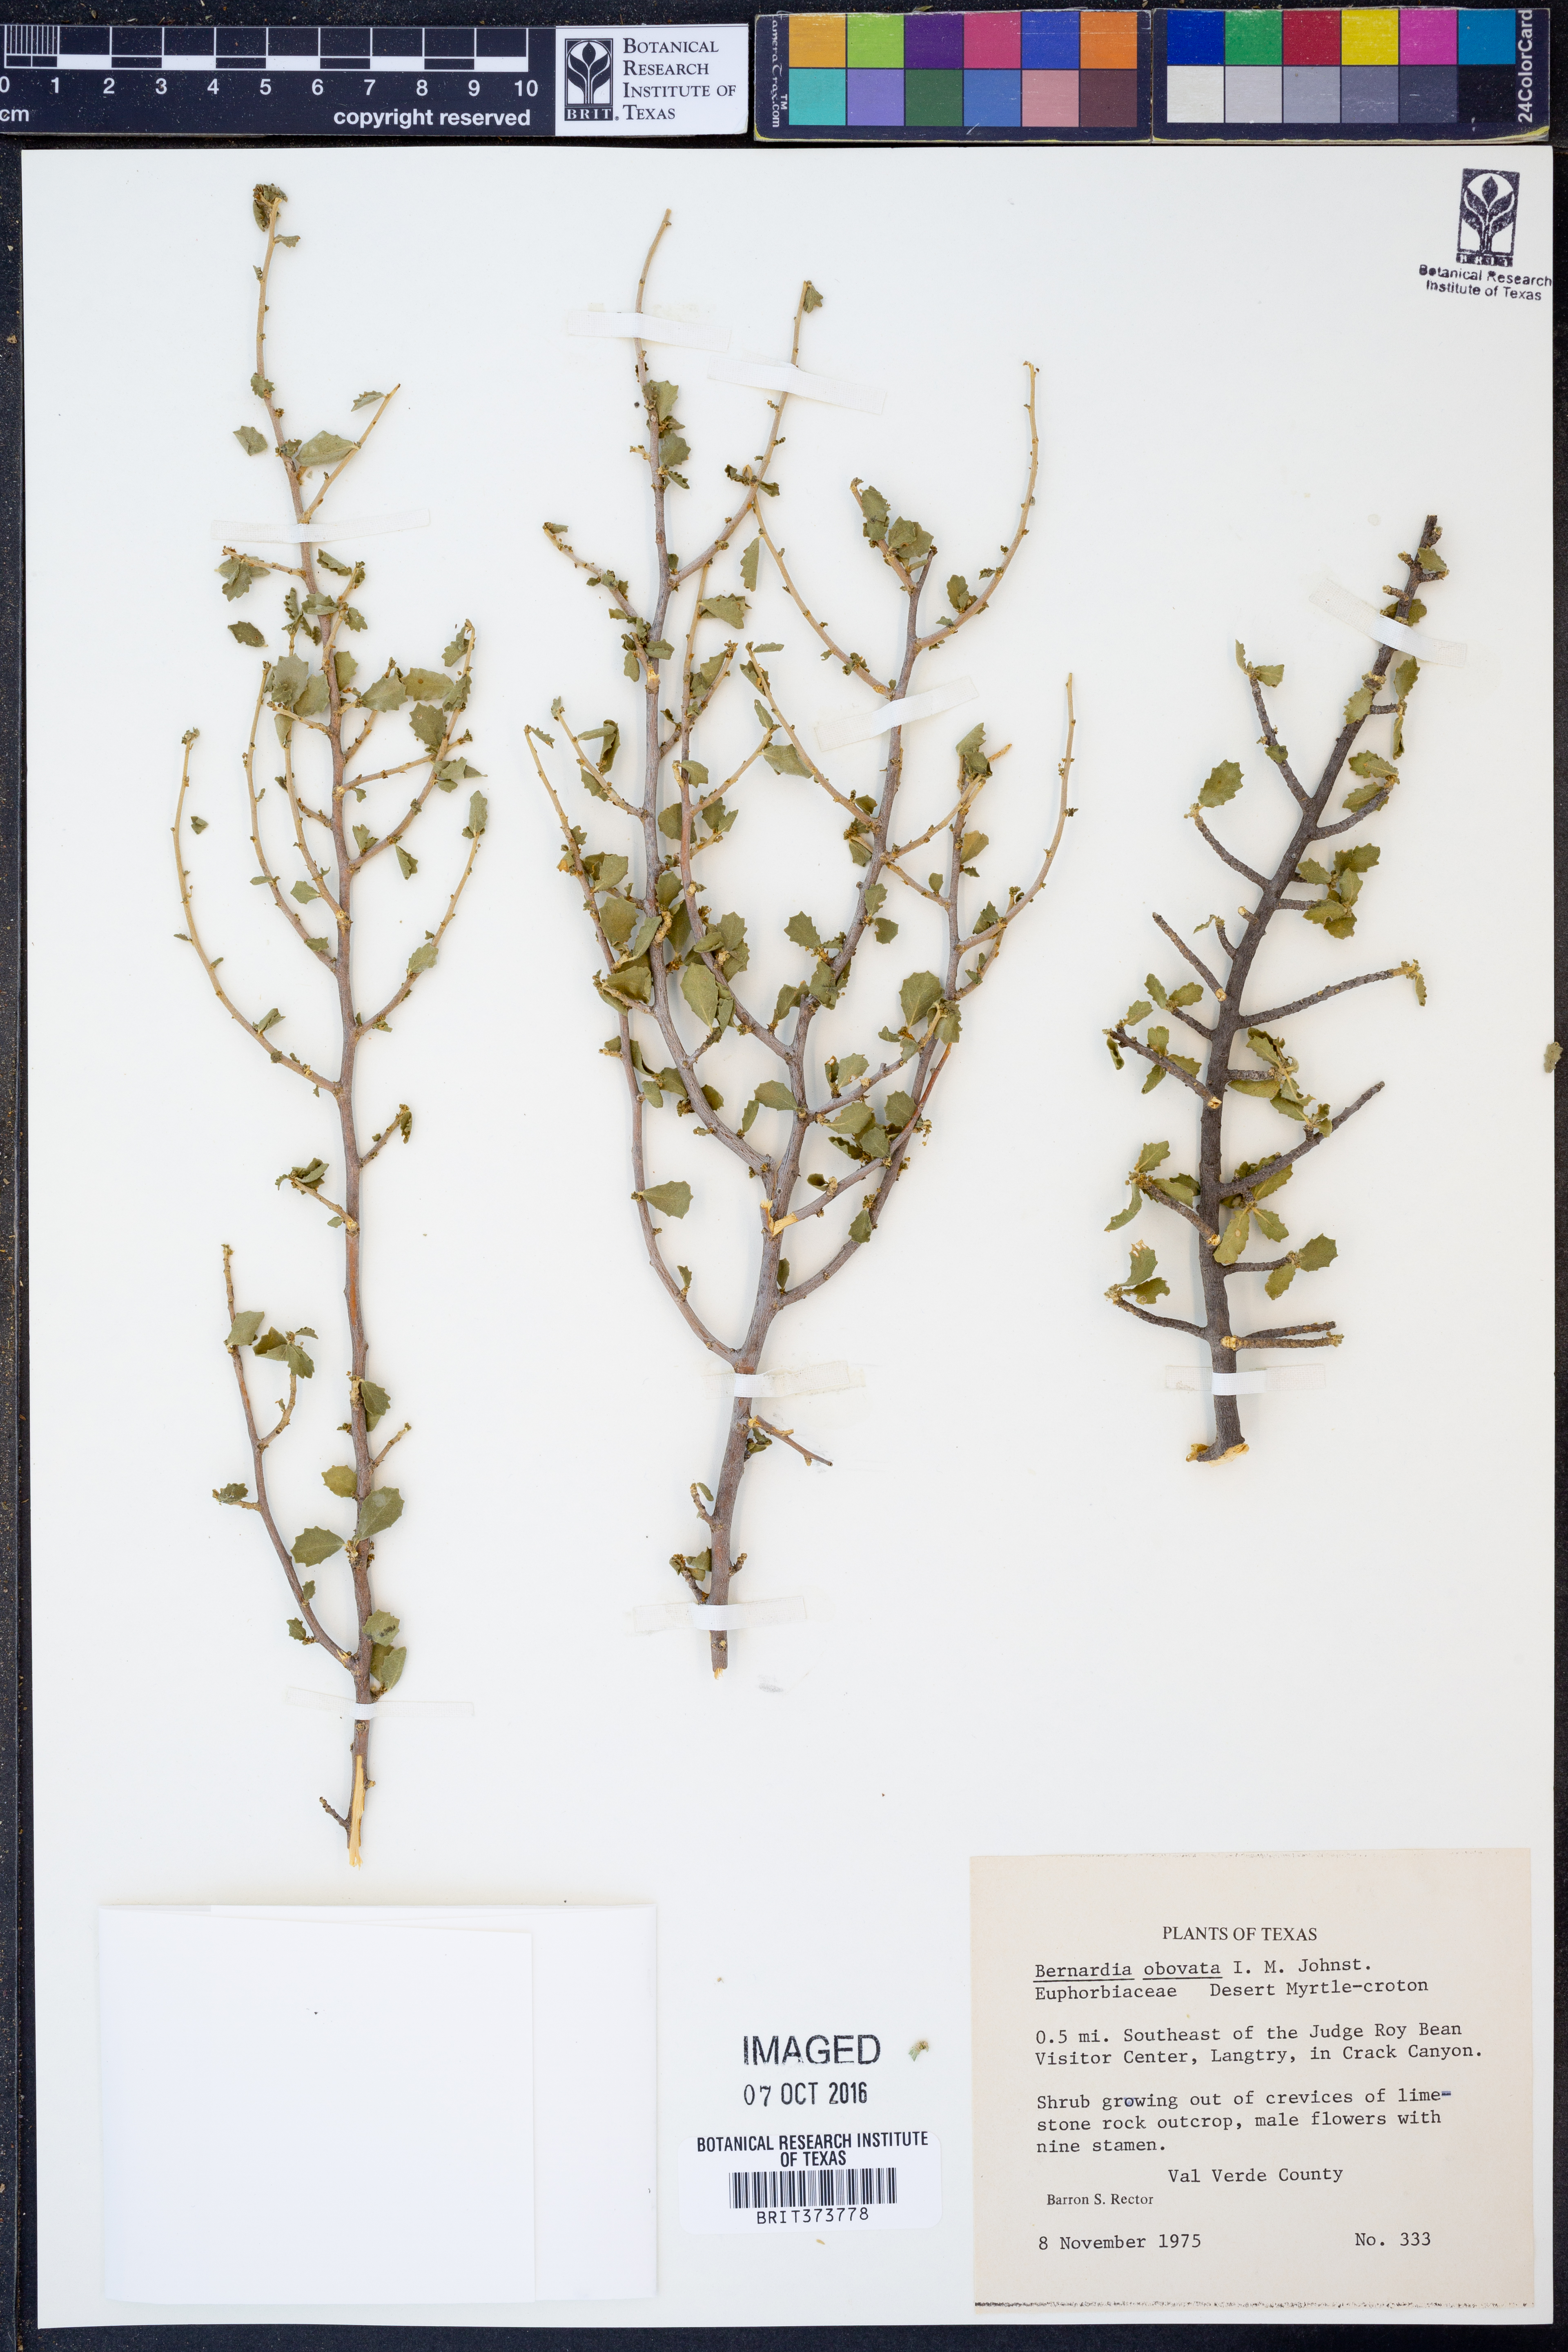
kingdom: Plantae
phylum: Tracheophyta
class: Magnoliopsida
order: Malpighiales
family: Euphorbiaceae
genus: Bernardia
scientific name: Bernardia obovata
